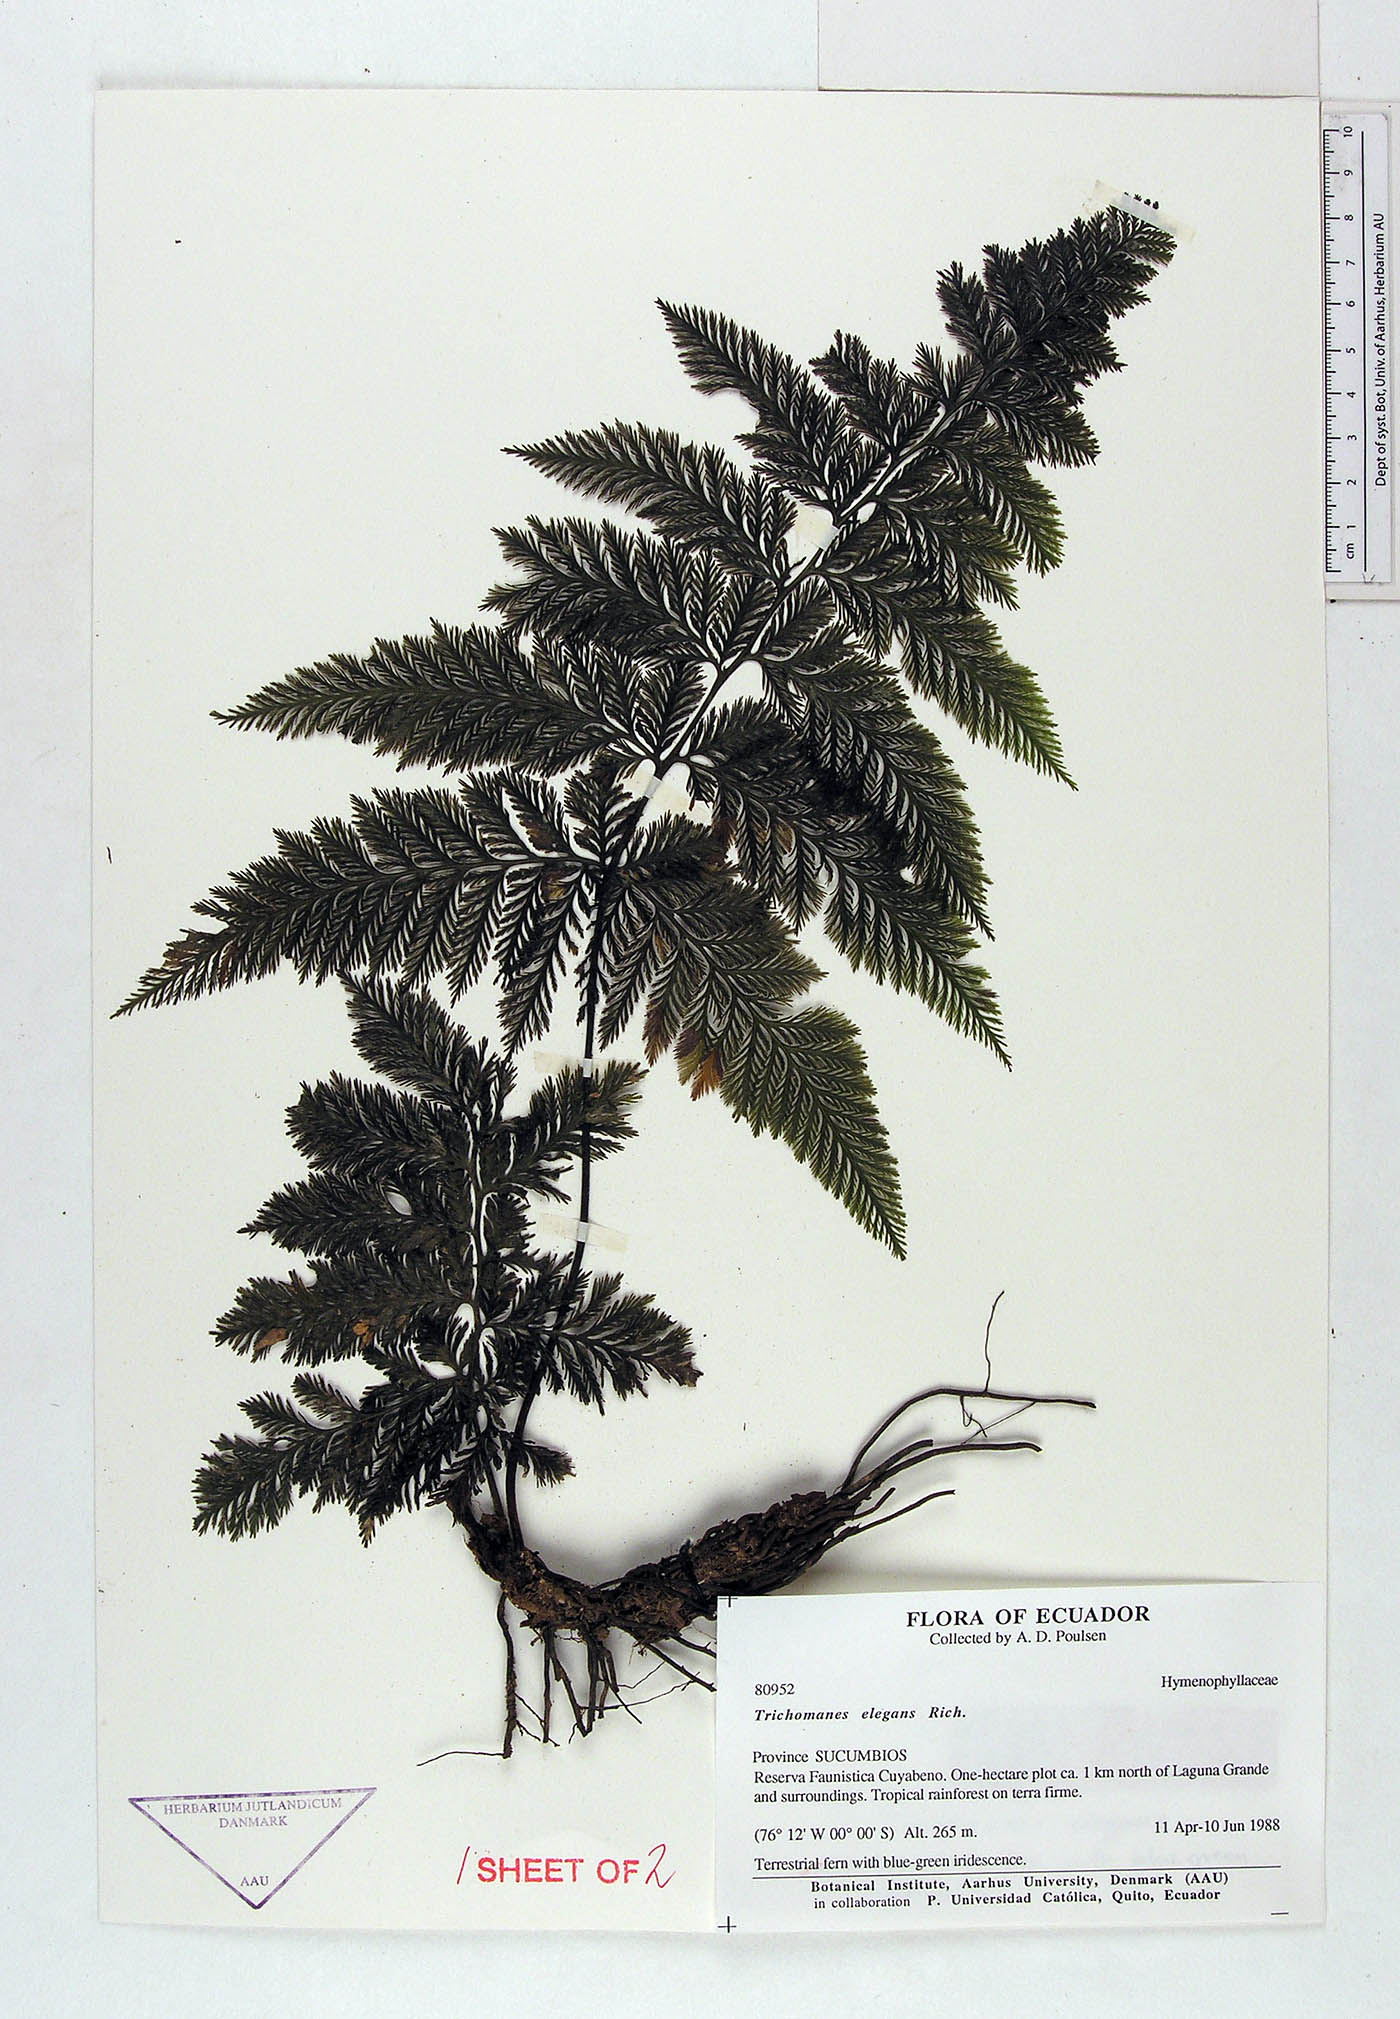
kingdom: Plantae
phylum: Tracheophyta
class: Polypodiopsida
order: Hymenophyllales
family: Hymenophyllaceae
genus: Trichomanes
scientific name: Trichomanes elegans
